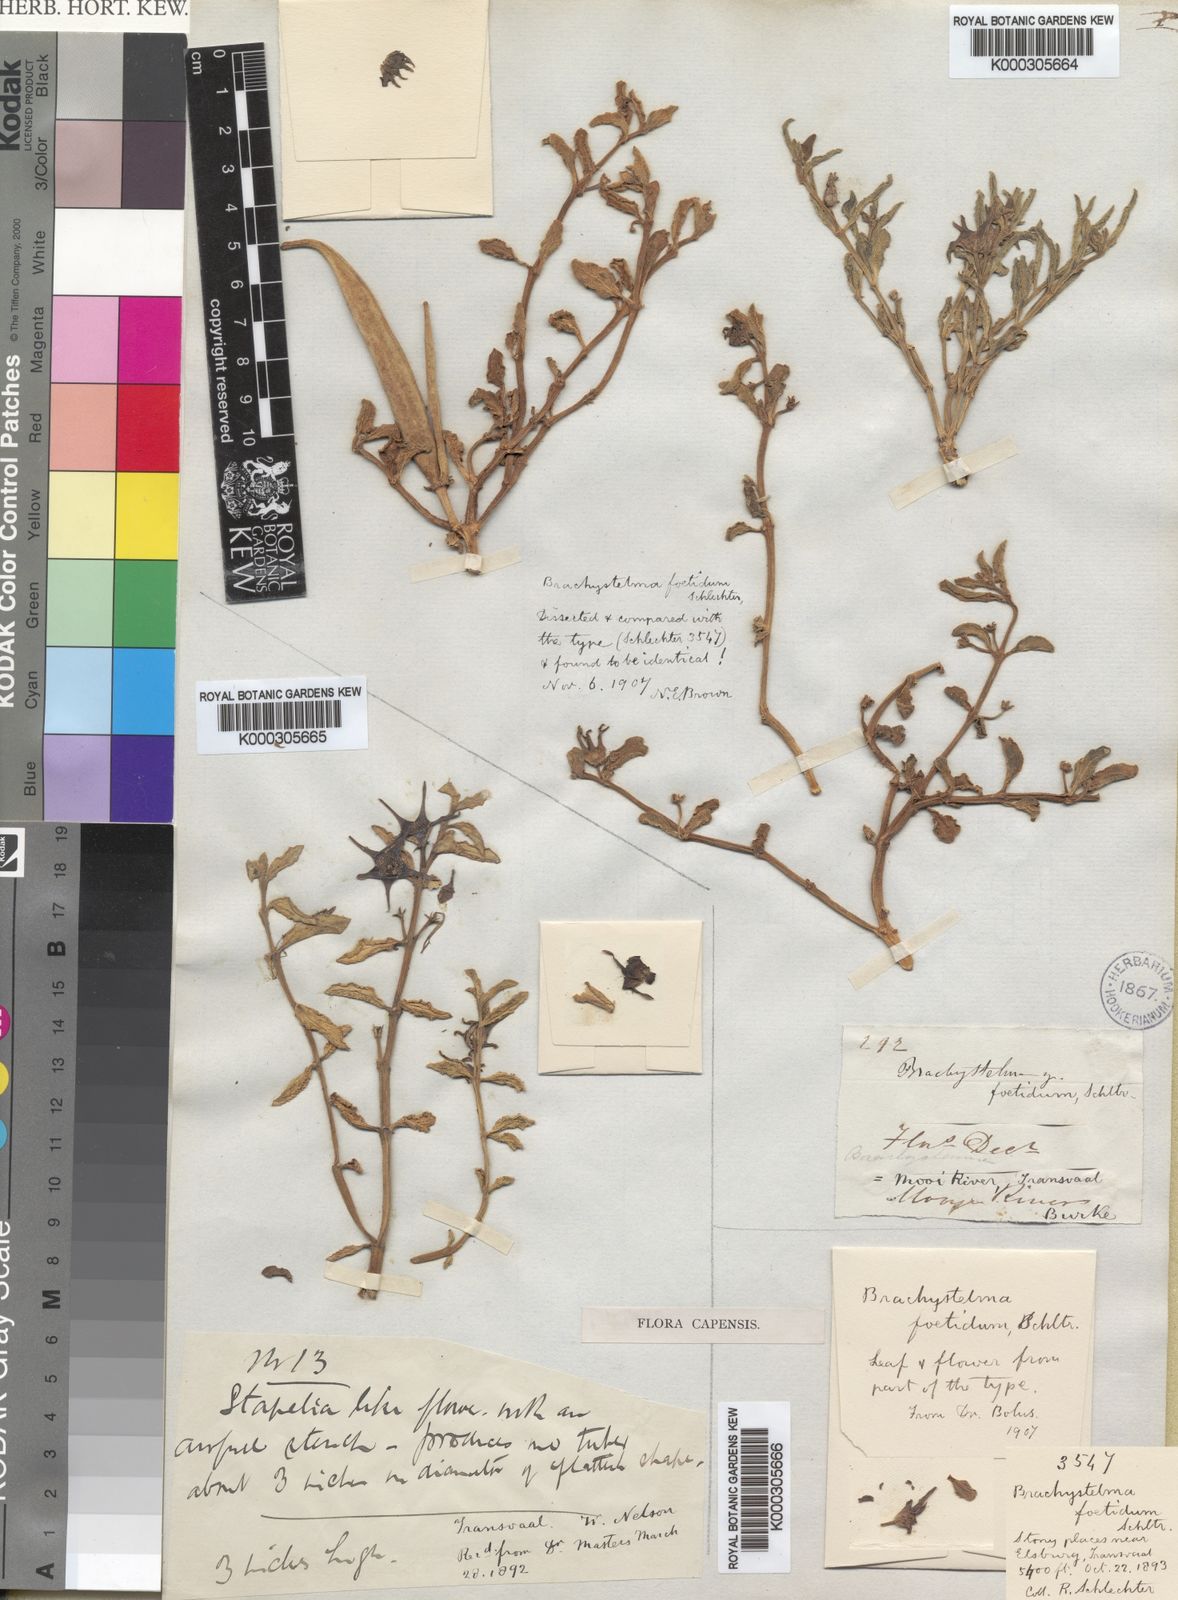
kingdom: Plantae
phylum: Tracheophyta
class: Magnoliopsida
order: Gentianales
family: Apocynaceae
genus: Ceropegia
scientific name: Ceropegia rehmannii
